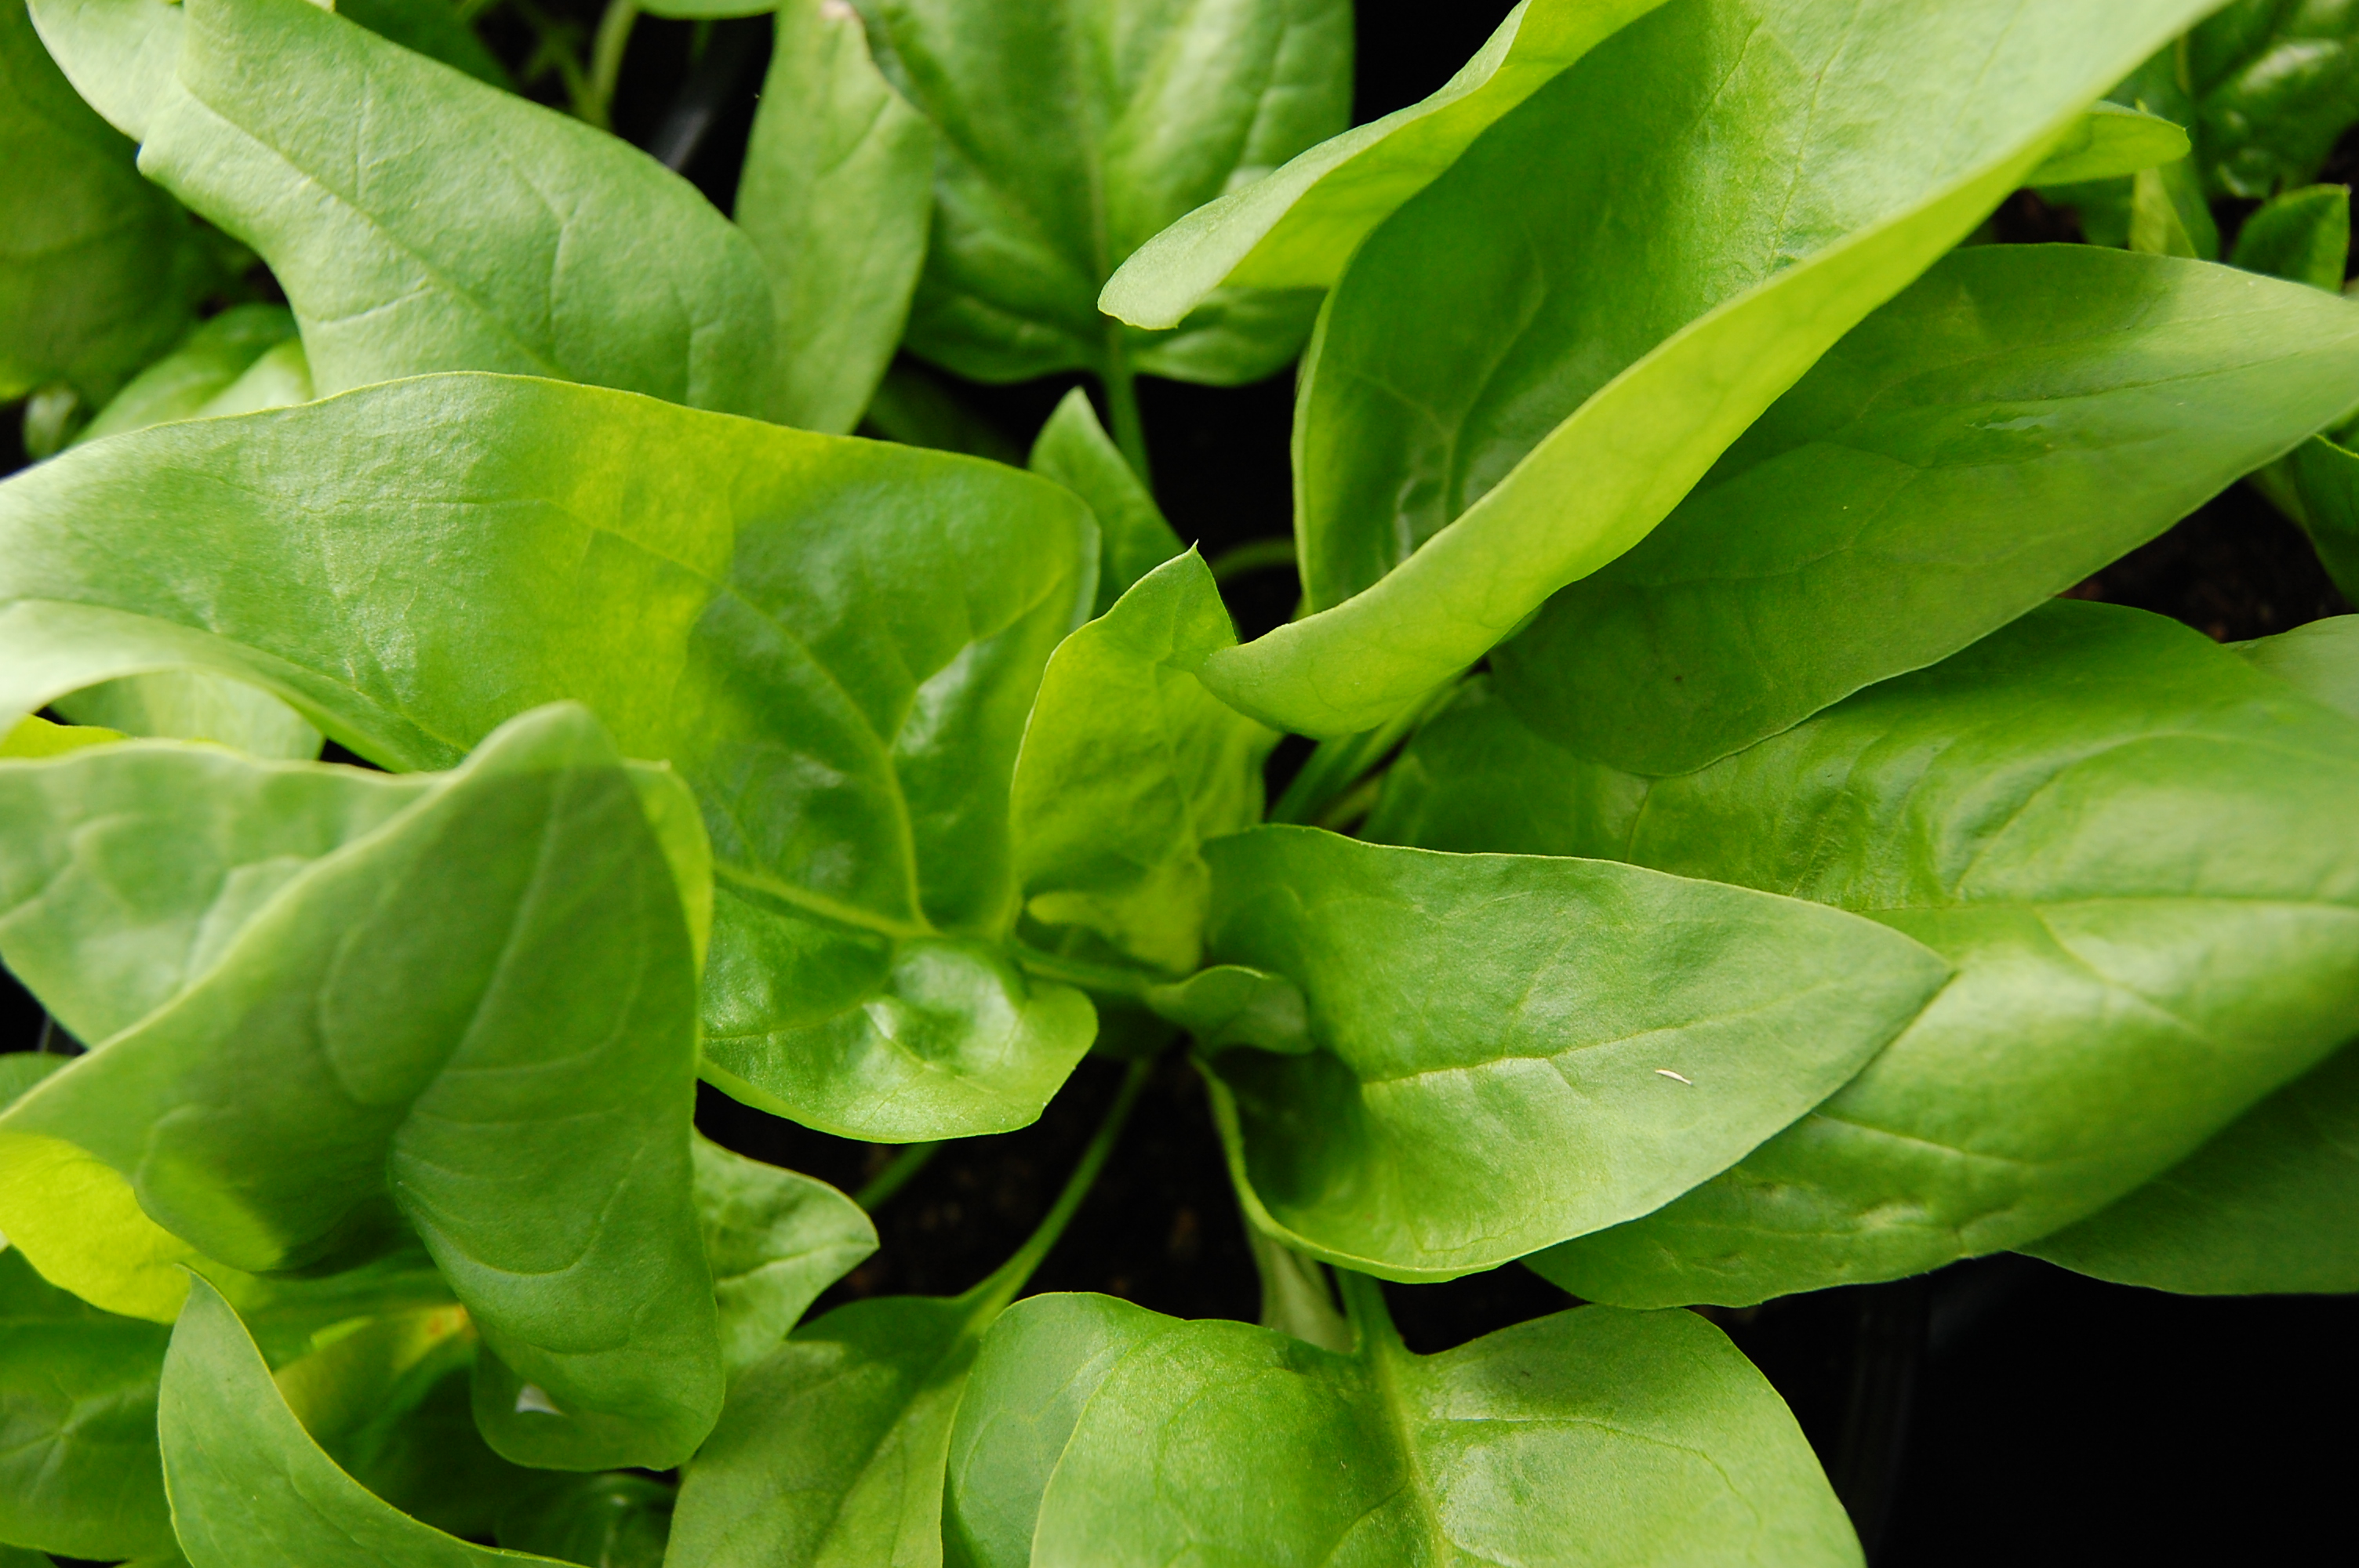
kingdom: Plantae
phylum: Tracheophyta
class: Magnoliopsida
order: Caryophyllales
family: Amaranthaceae
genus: Spinacia
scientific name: Spinacia oleracea
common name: Spinach
